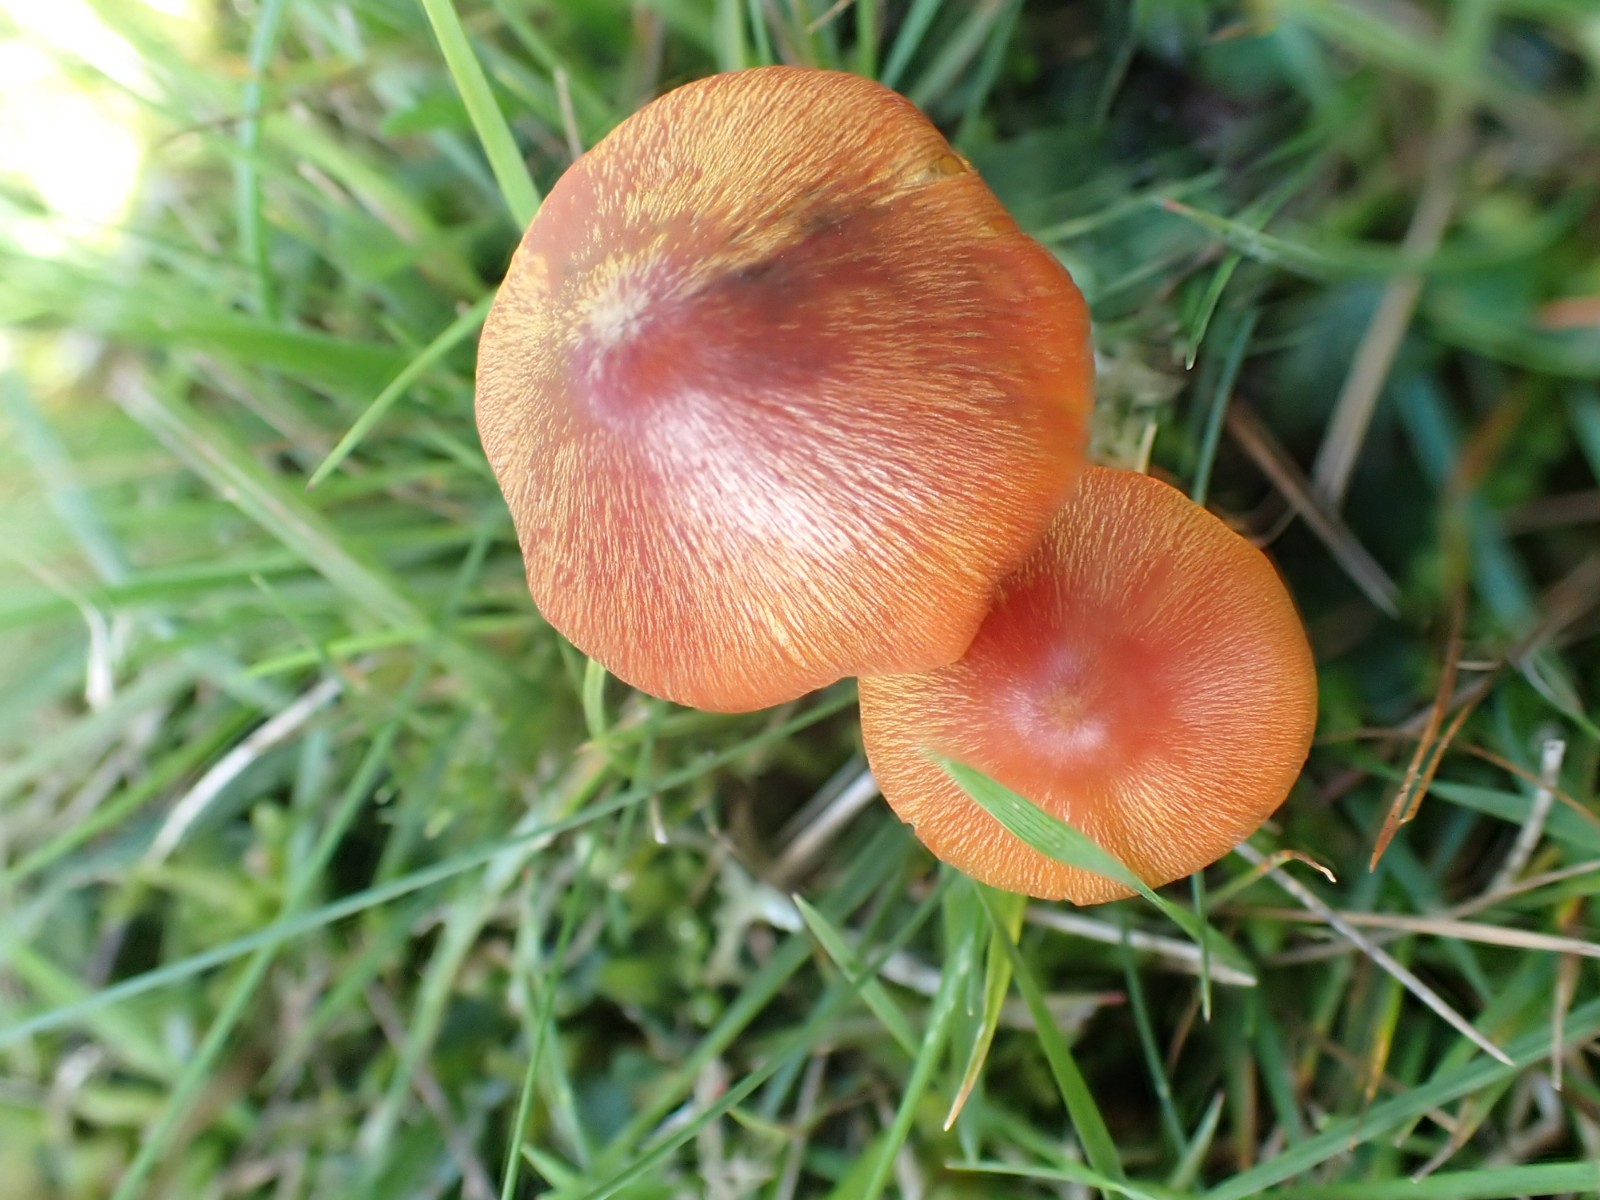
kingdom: Fungi
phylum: Basidiomycota
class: Agaricomycetes
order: Agaricales
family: Hygrophoraceae
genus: Hygrocybe
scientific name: Hygrocybe conica
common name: kegle-vokshat
